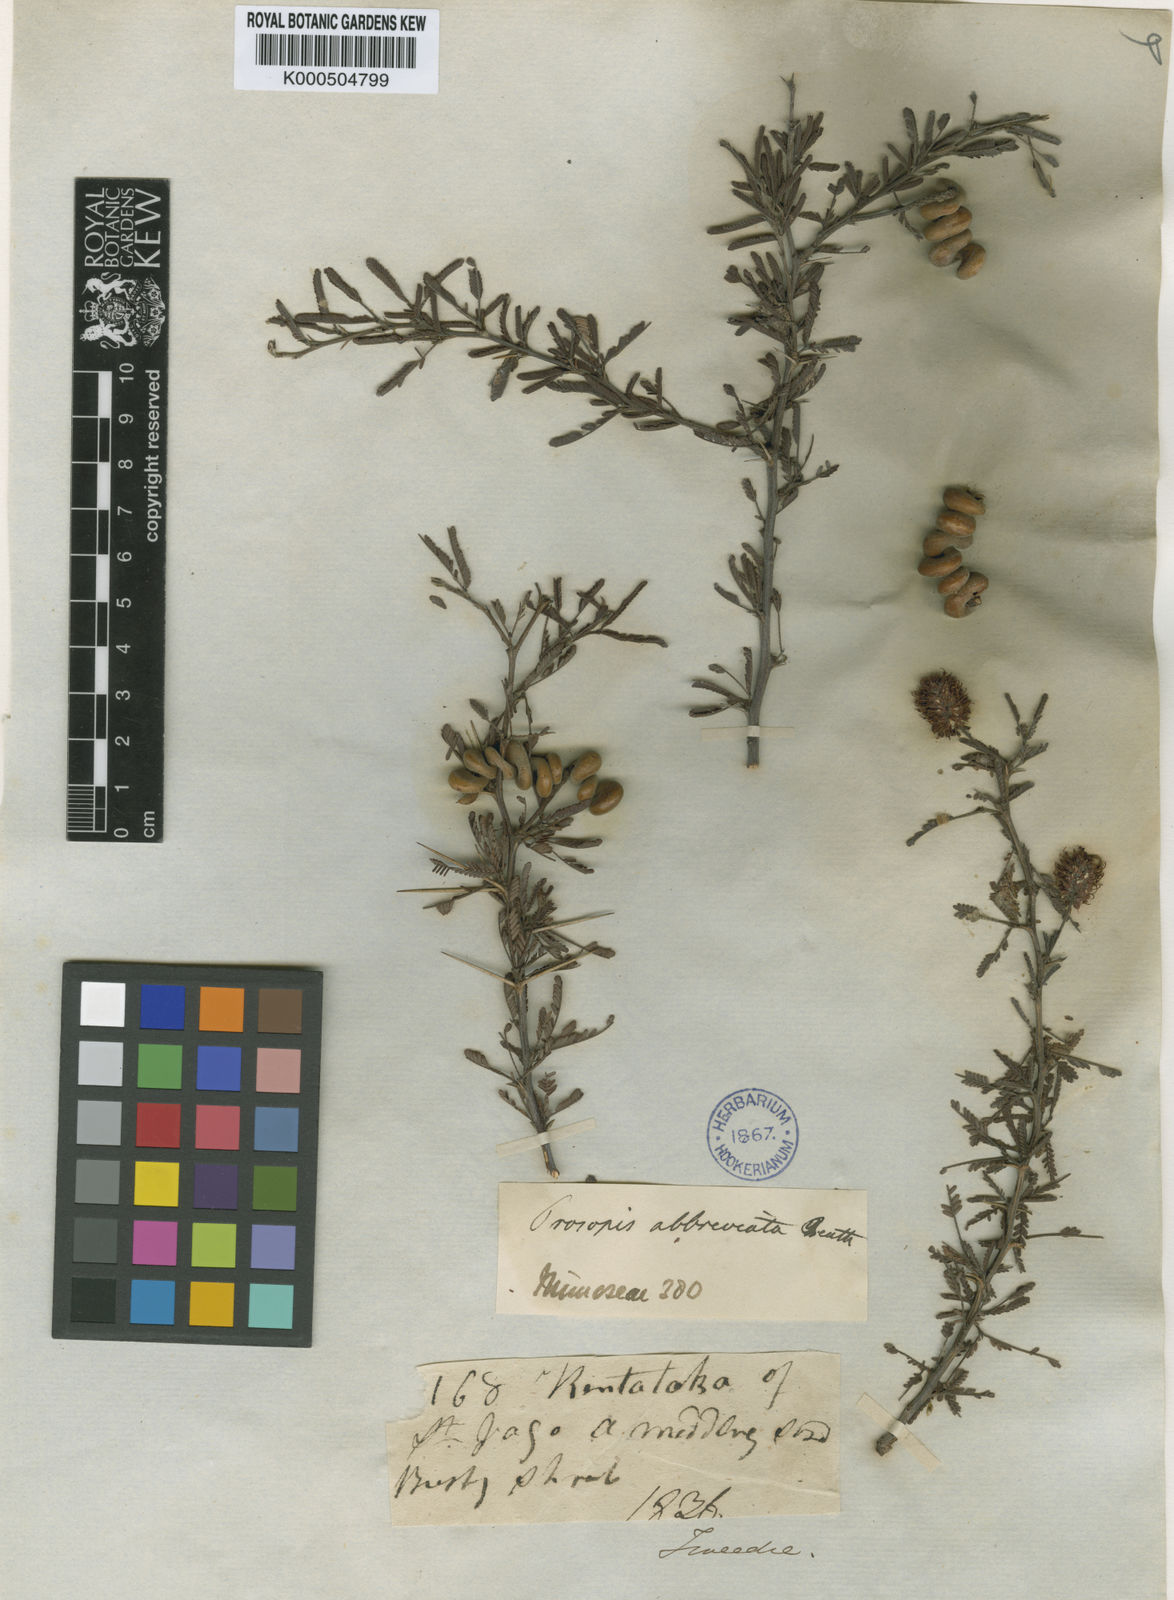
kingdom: Plantae
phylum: Tracheophyta
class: Magnoliopsida
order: Fabales
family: Fabaceae
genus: Prosopis
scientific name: Prosopis abbreviata
